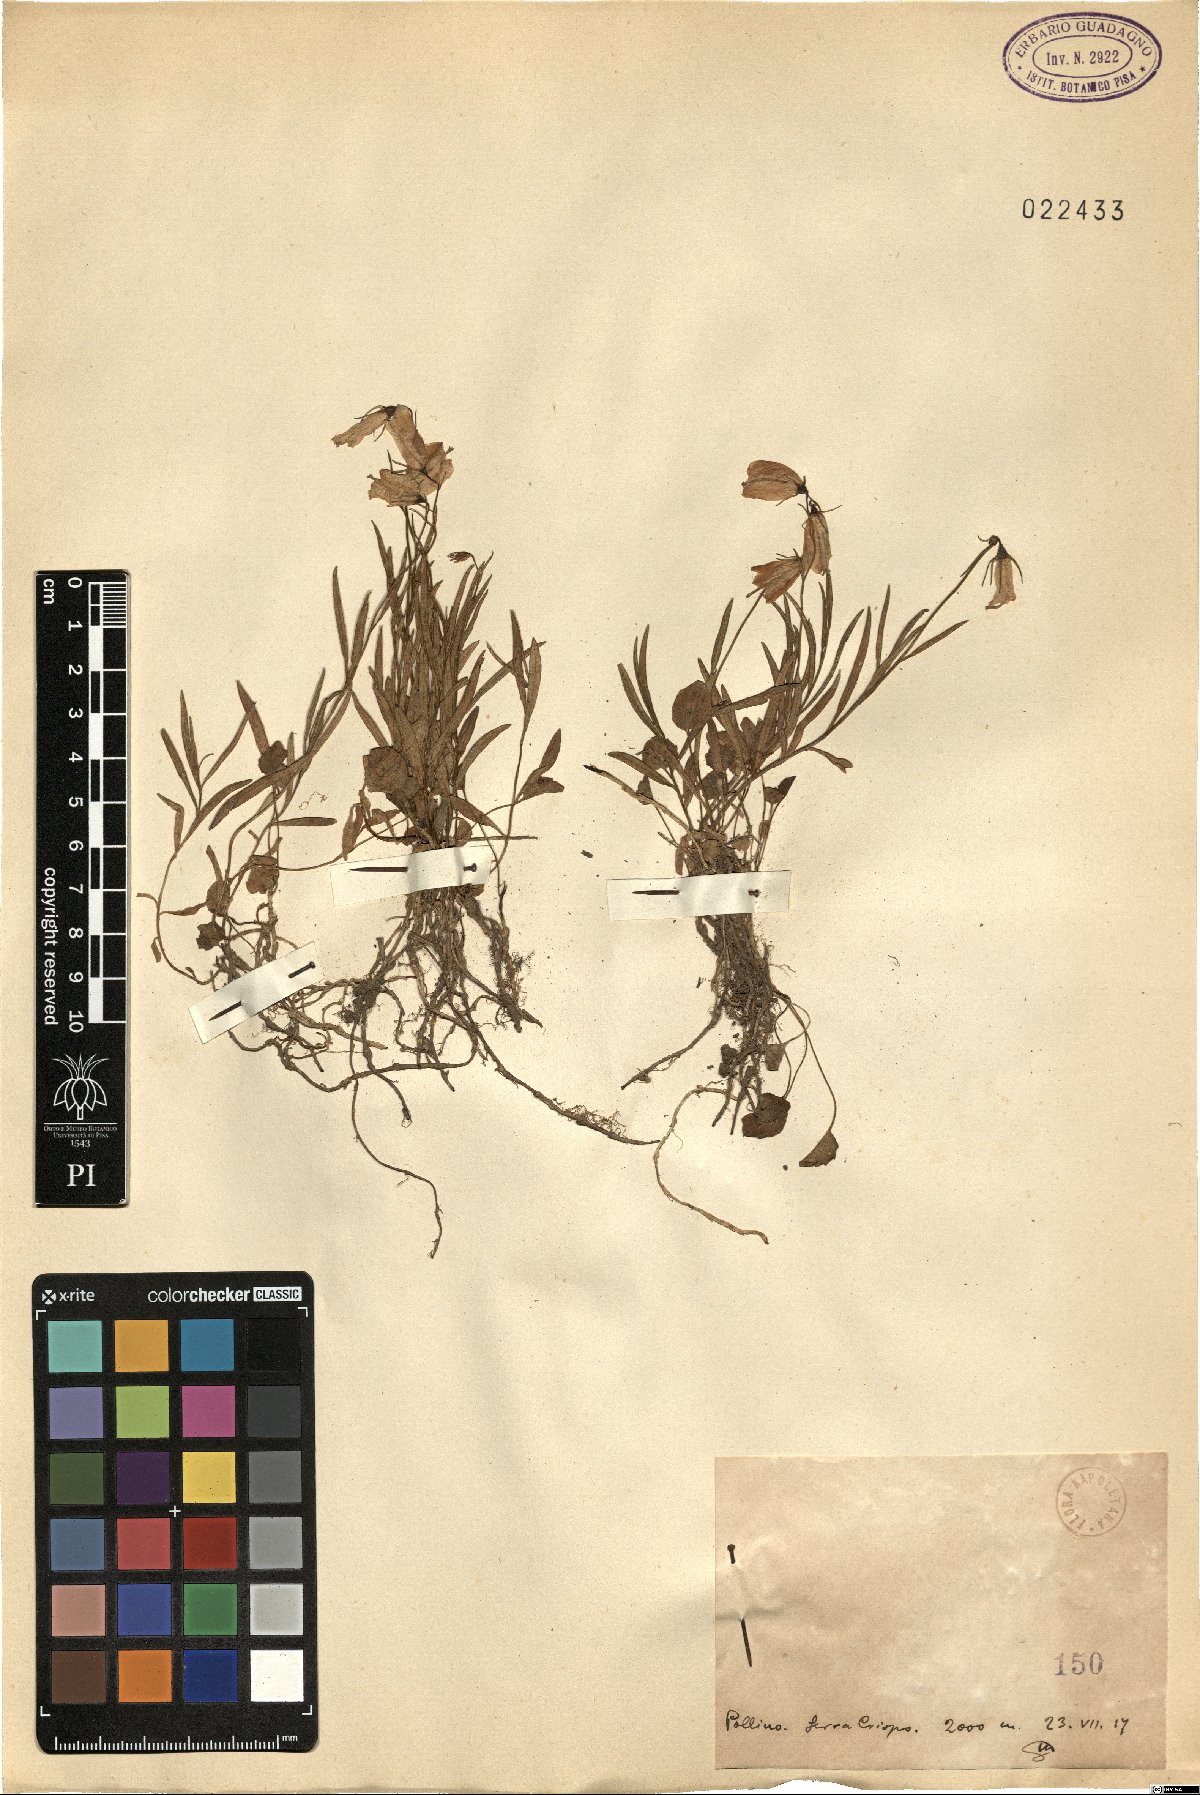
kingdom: Plantae
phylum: Tracheophyta
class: Magnoliopsida
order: Asterales
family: Campanulaceae
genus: Campanula
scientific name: Campanula
